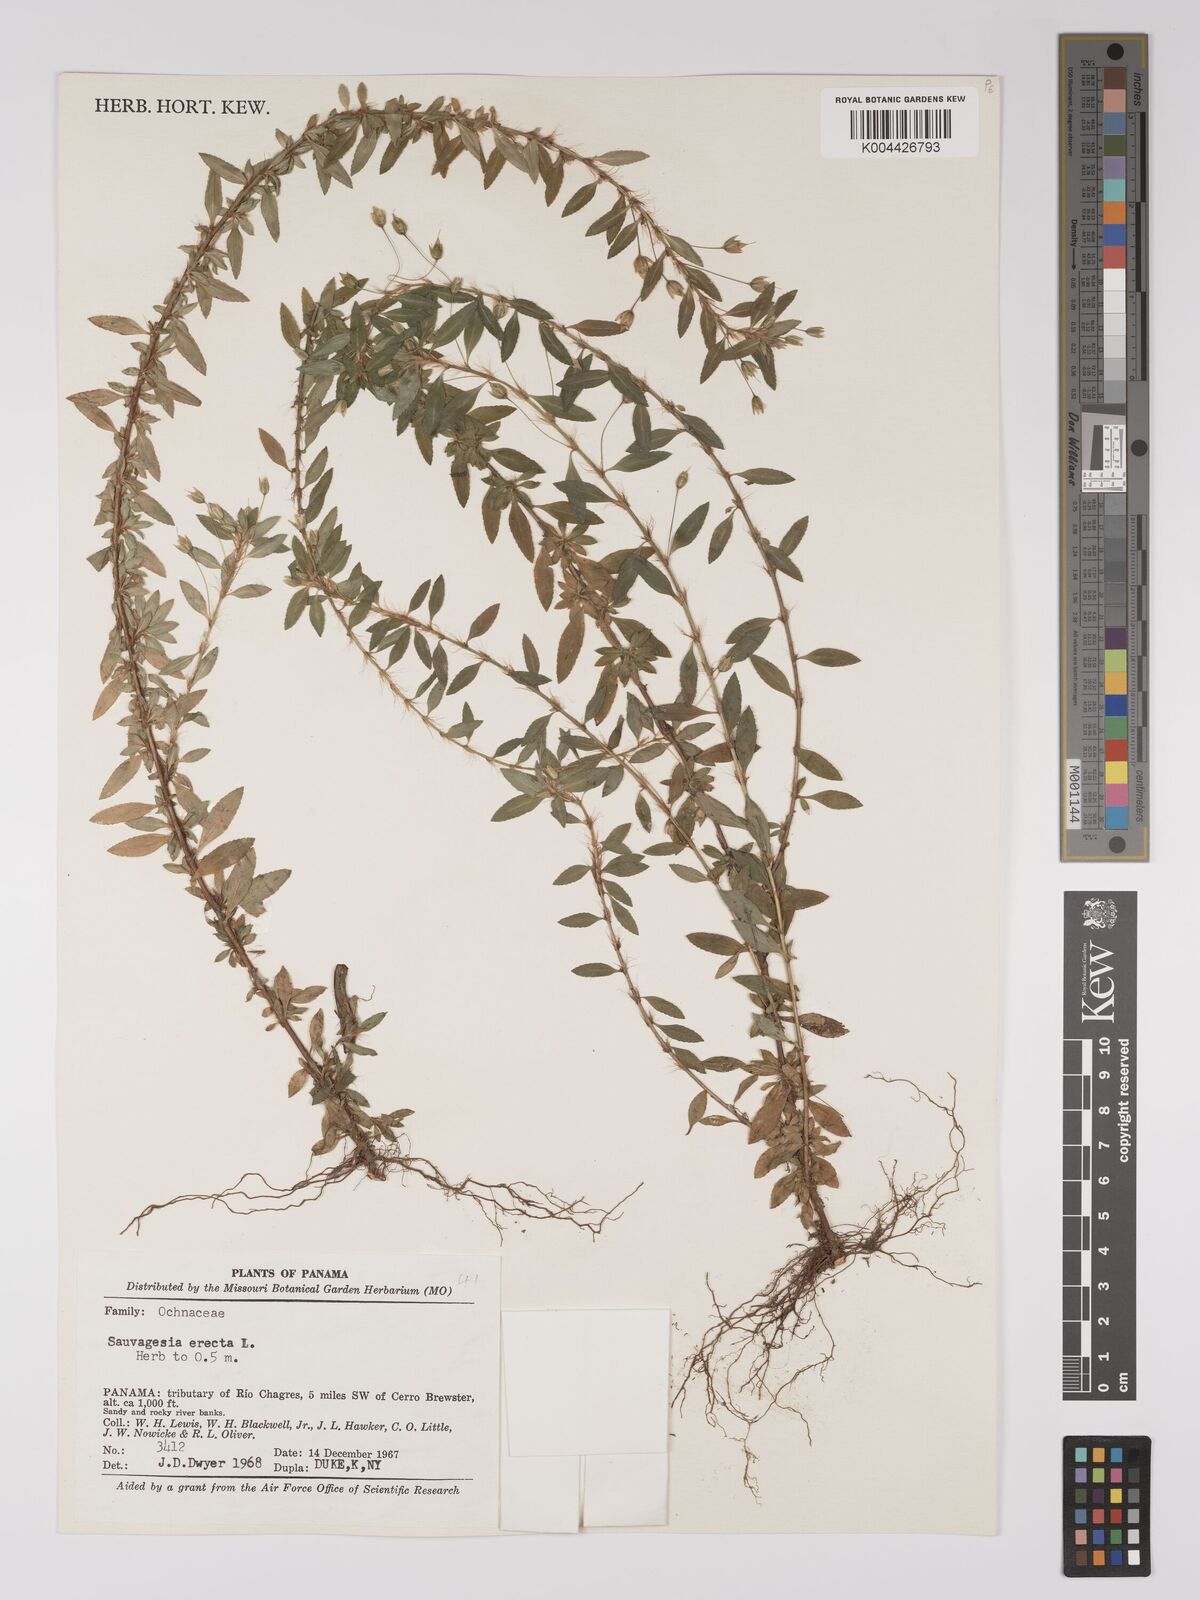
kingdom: Plantae
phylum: Tracheophyta
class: Magnoliopsida
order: Malpighiales
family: Ochnaceae
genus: Sauvagesia
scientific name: Sauvagesia erecta
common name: Creole tea
